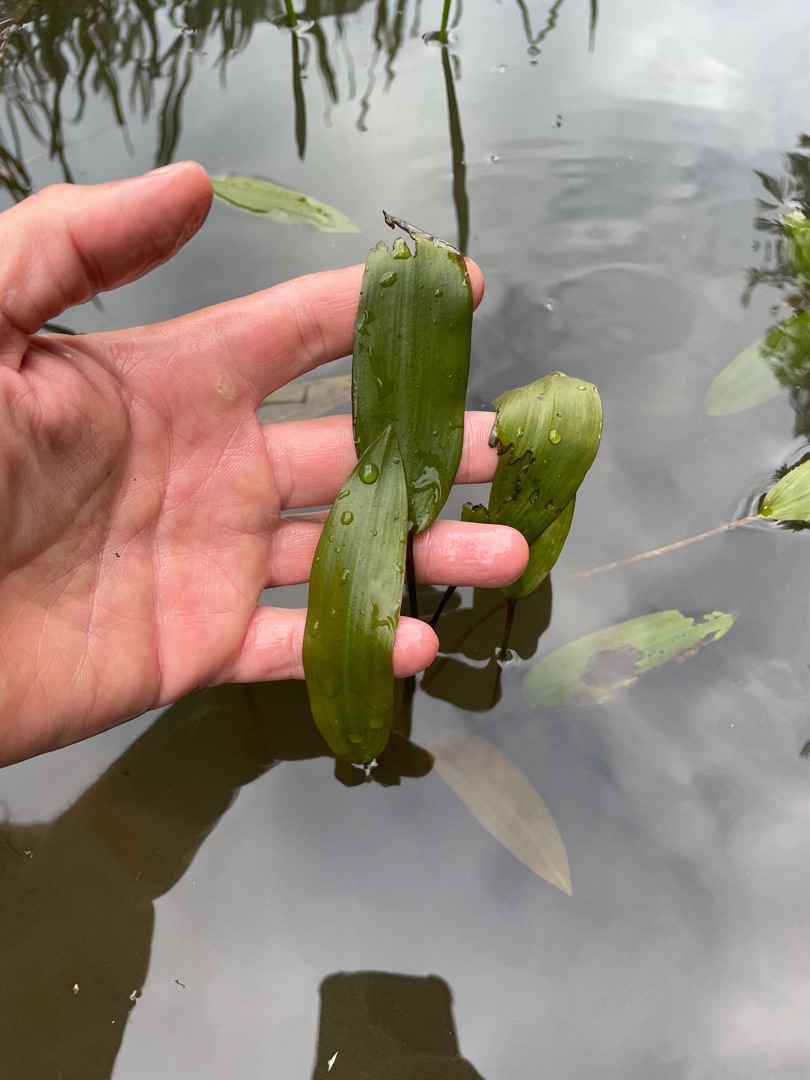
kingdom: Plantae
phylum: Tracheophyta
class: Liliopsida
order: Alismatales
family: Potamogetonaceae
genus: Potamogeton
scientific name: Potamogeton natans
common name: Svømmende vandaks
